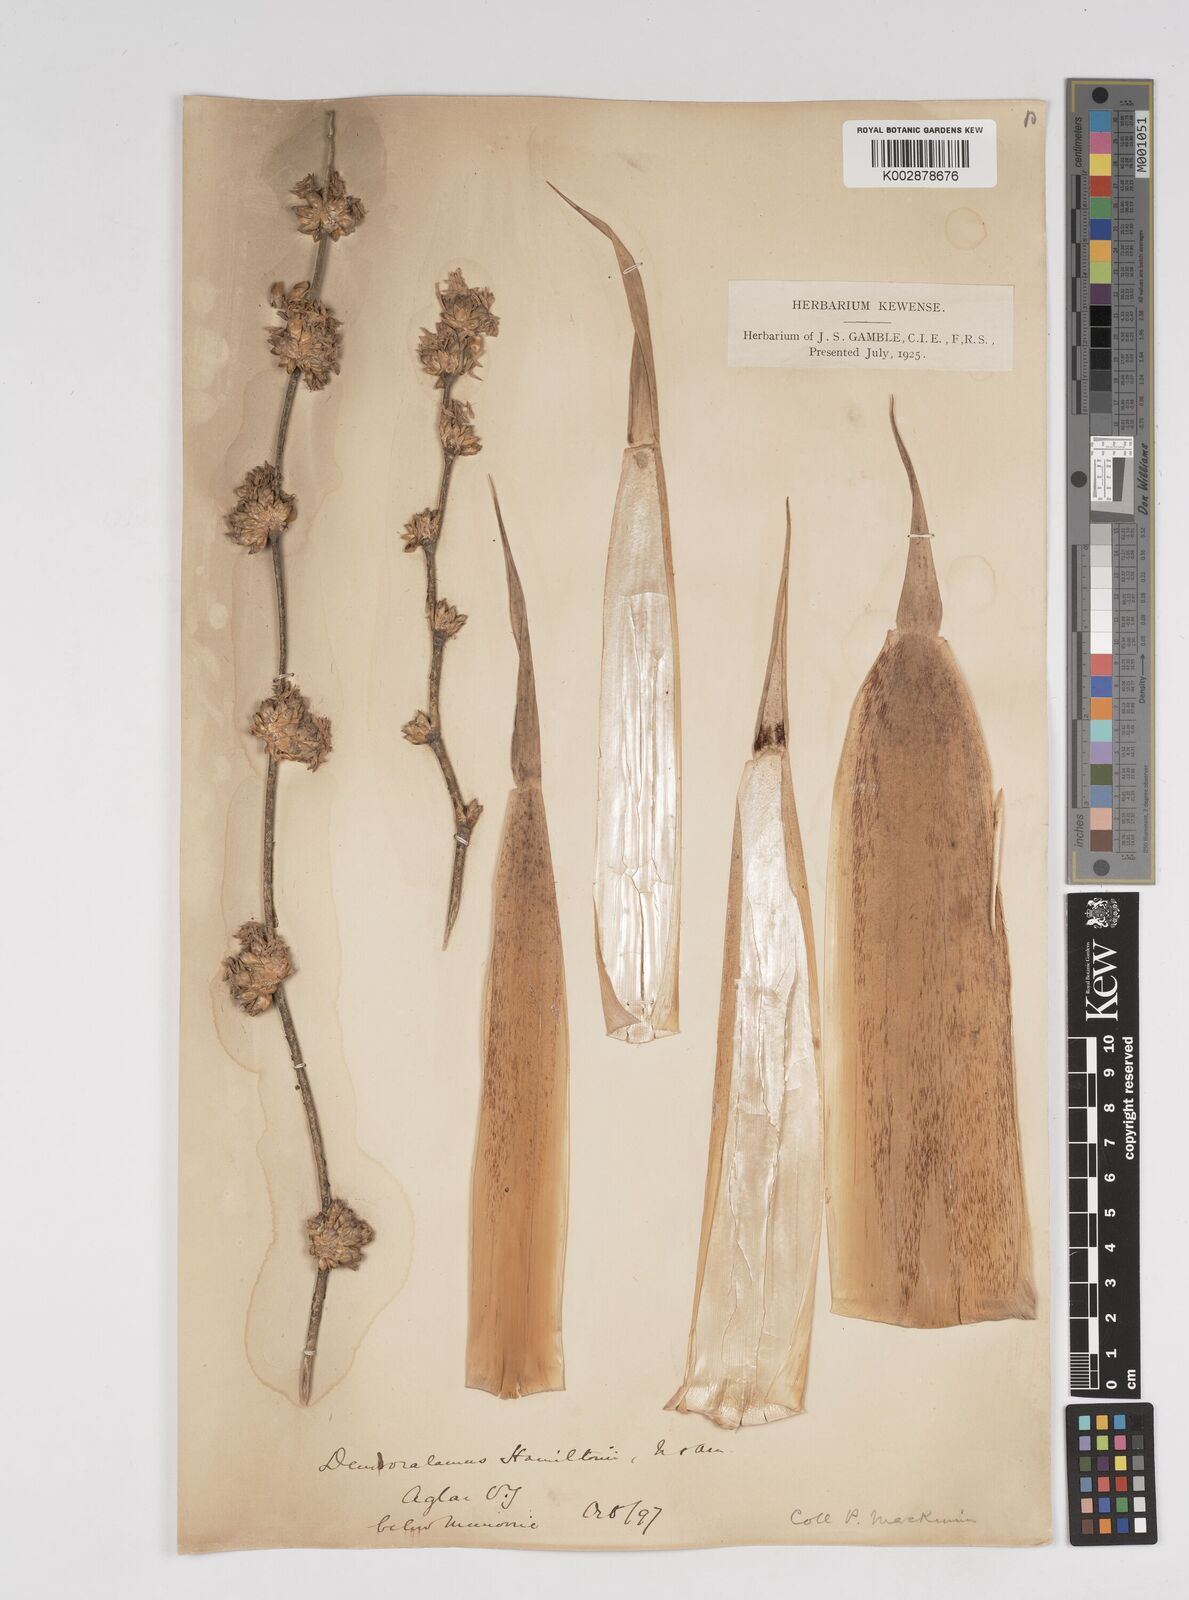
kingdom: Plantae
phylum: Tracheophyta
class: Liliopsida
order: Poales
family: Poaceae
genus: Dendrocalamus
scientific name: Dendrocalamus hamiltonii
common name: Tama bamboo
